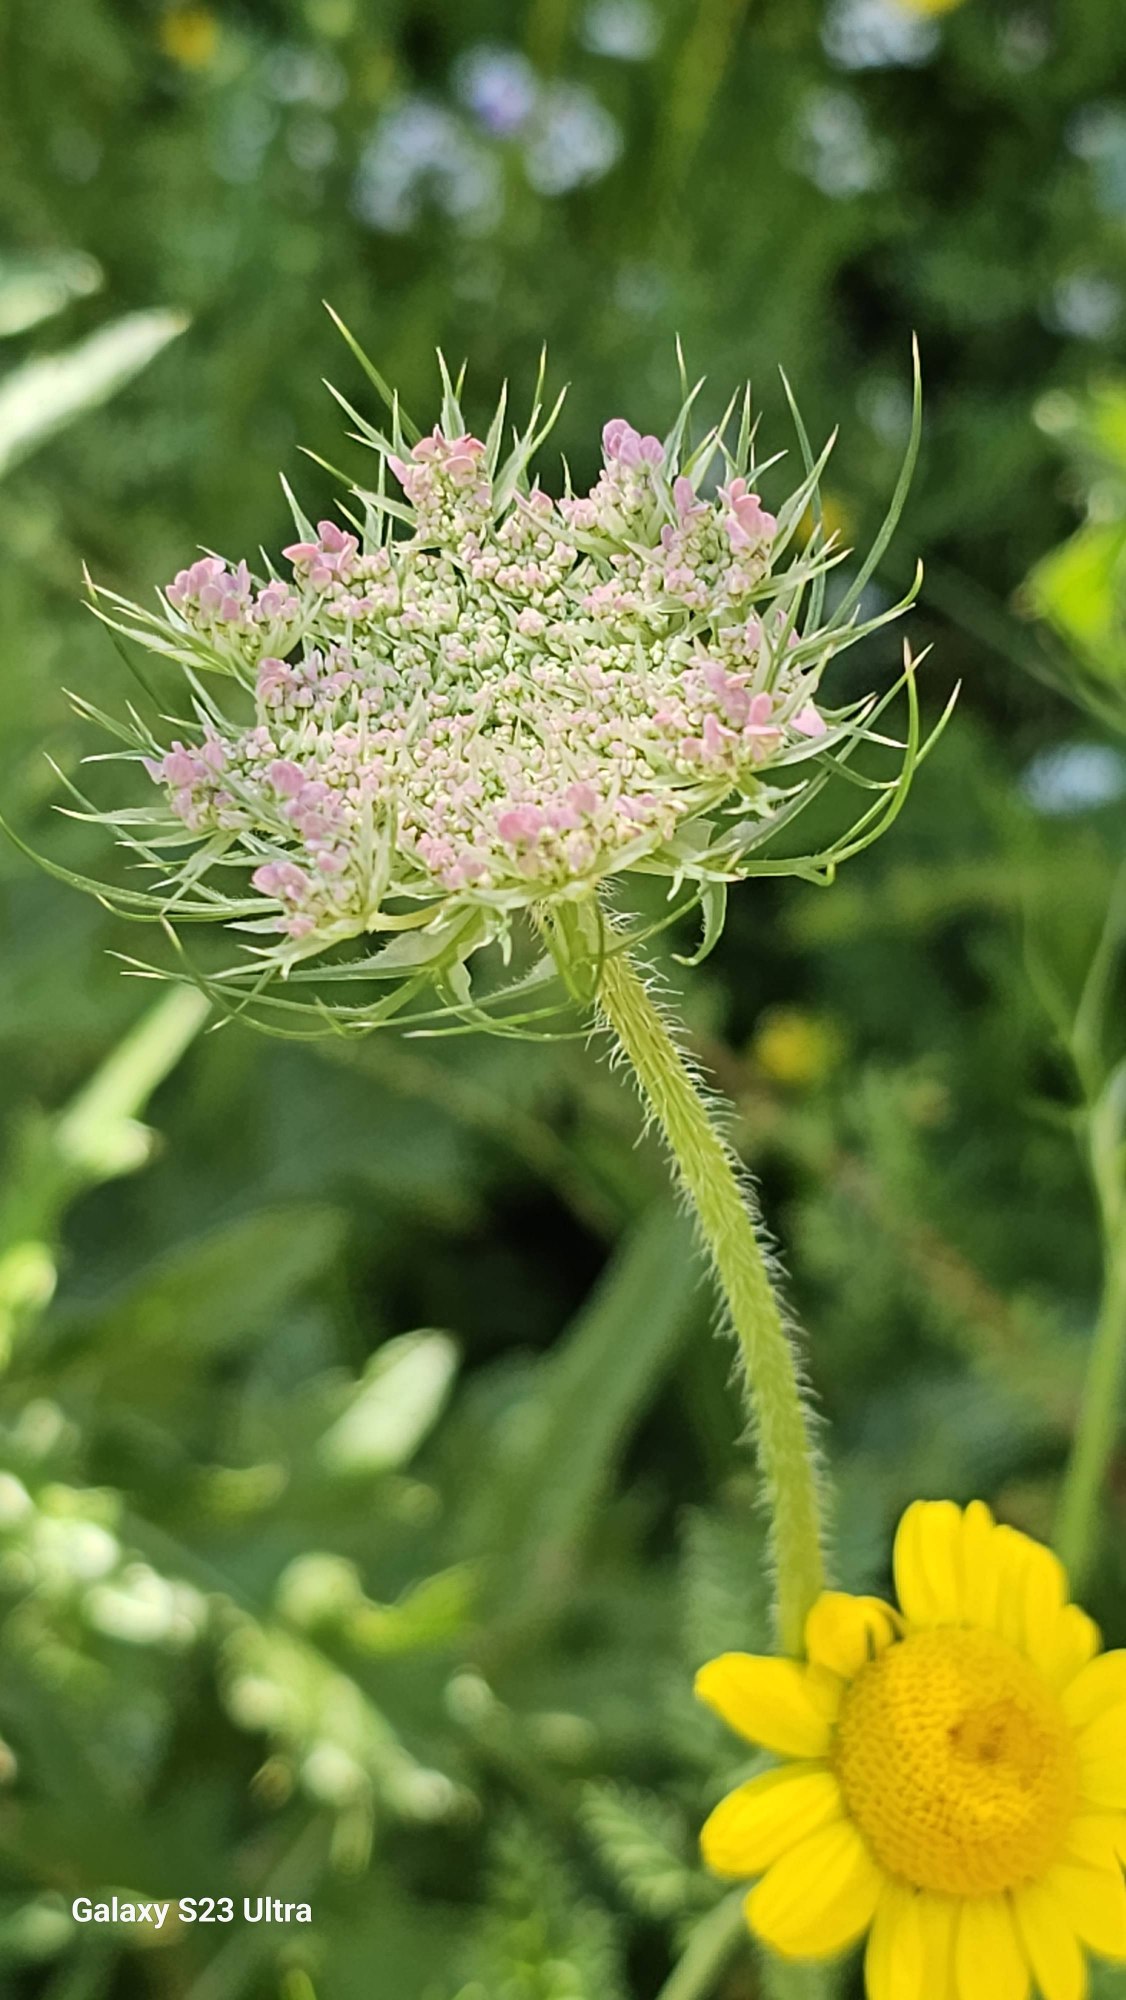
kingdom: Plantae
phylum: Tracheophyta
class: Magnoliopsida
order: Apiales
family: Apiaceae
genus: Daucus
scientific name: Daucus carota
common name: Gulerod
